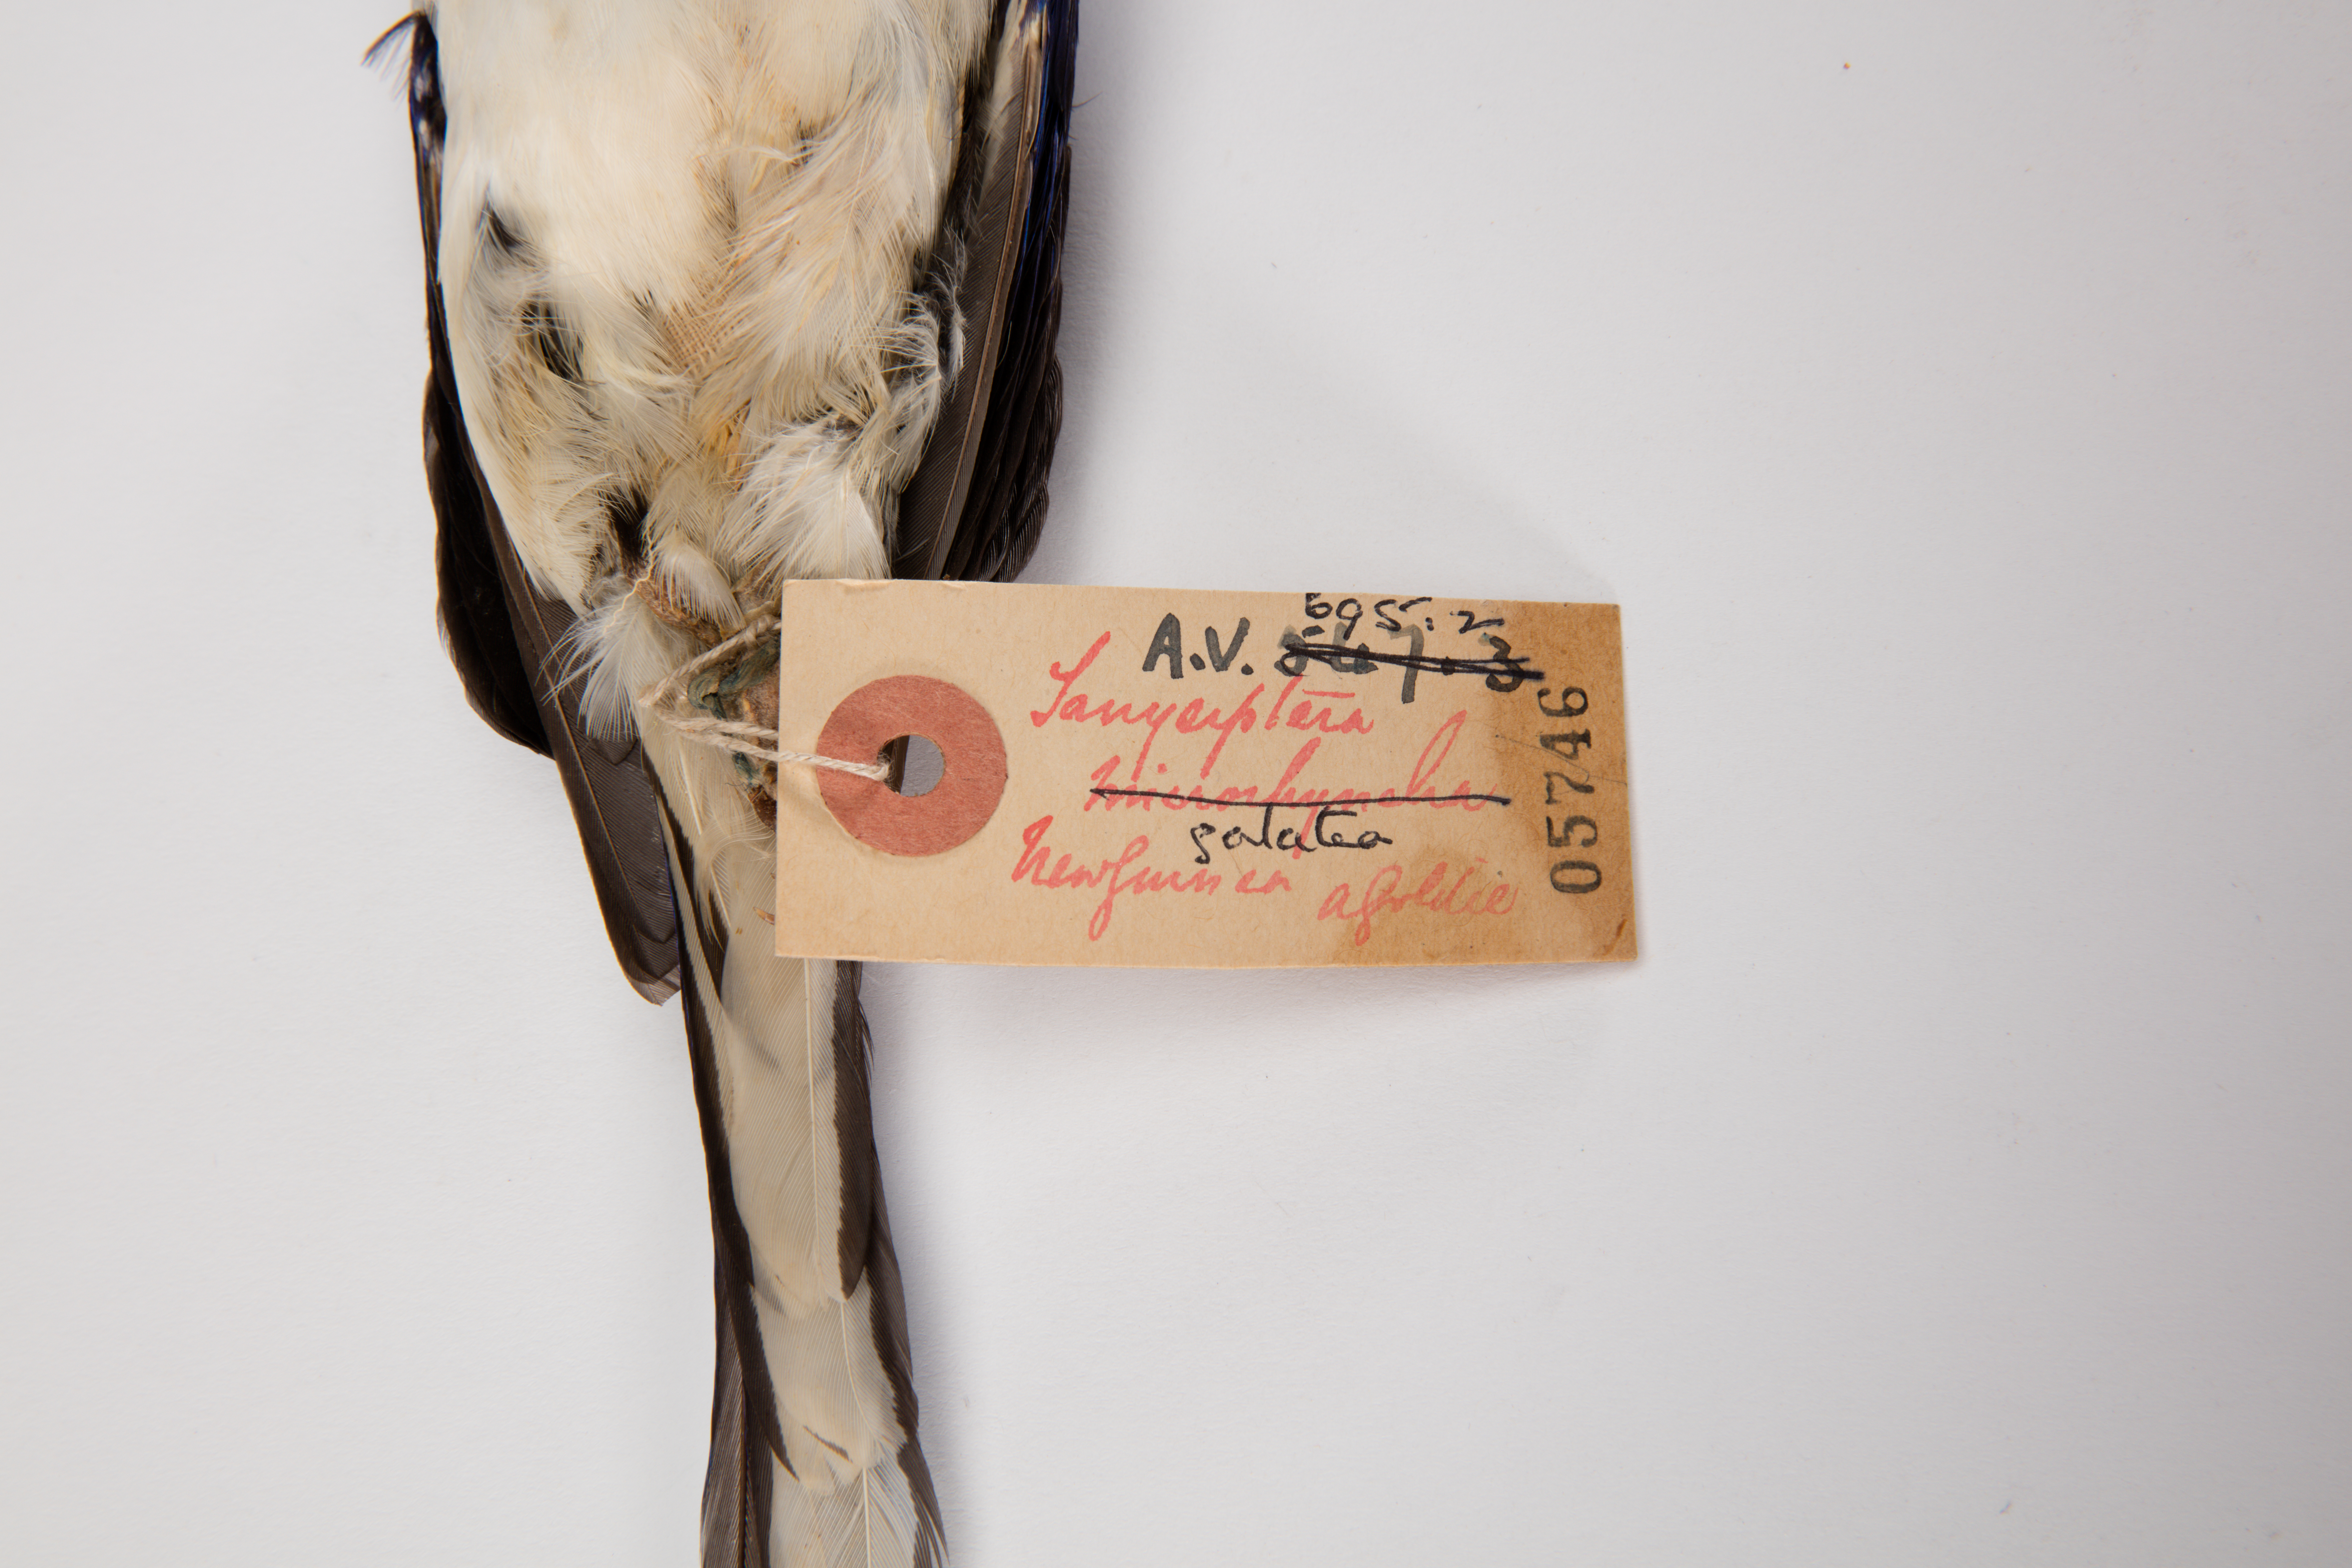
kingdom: Animalia
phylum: Chordata
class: Aves
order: Coraciiformes
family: Alcedinidae
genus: Tanysiptera
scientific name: Tanysiptera galatea
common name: Common paradise-kingfisher
